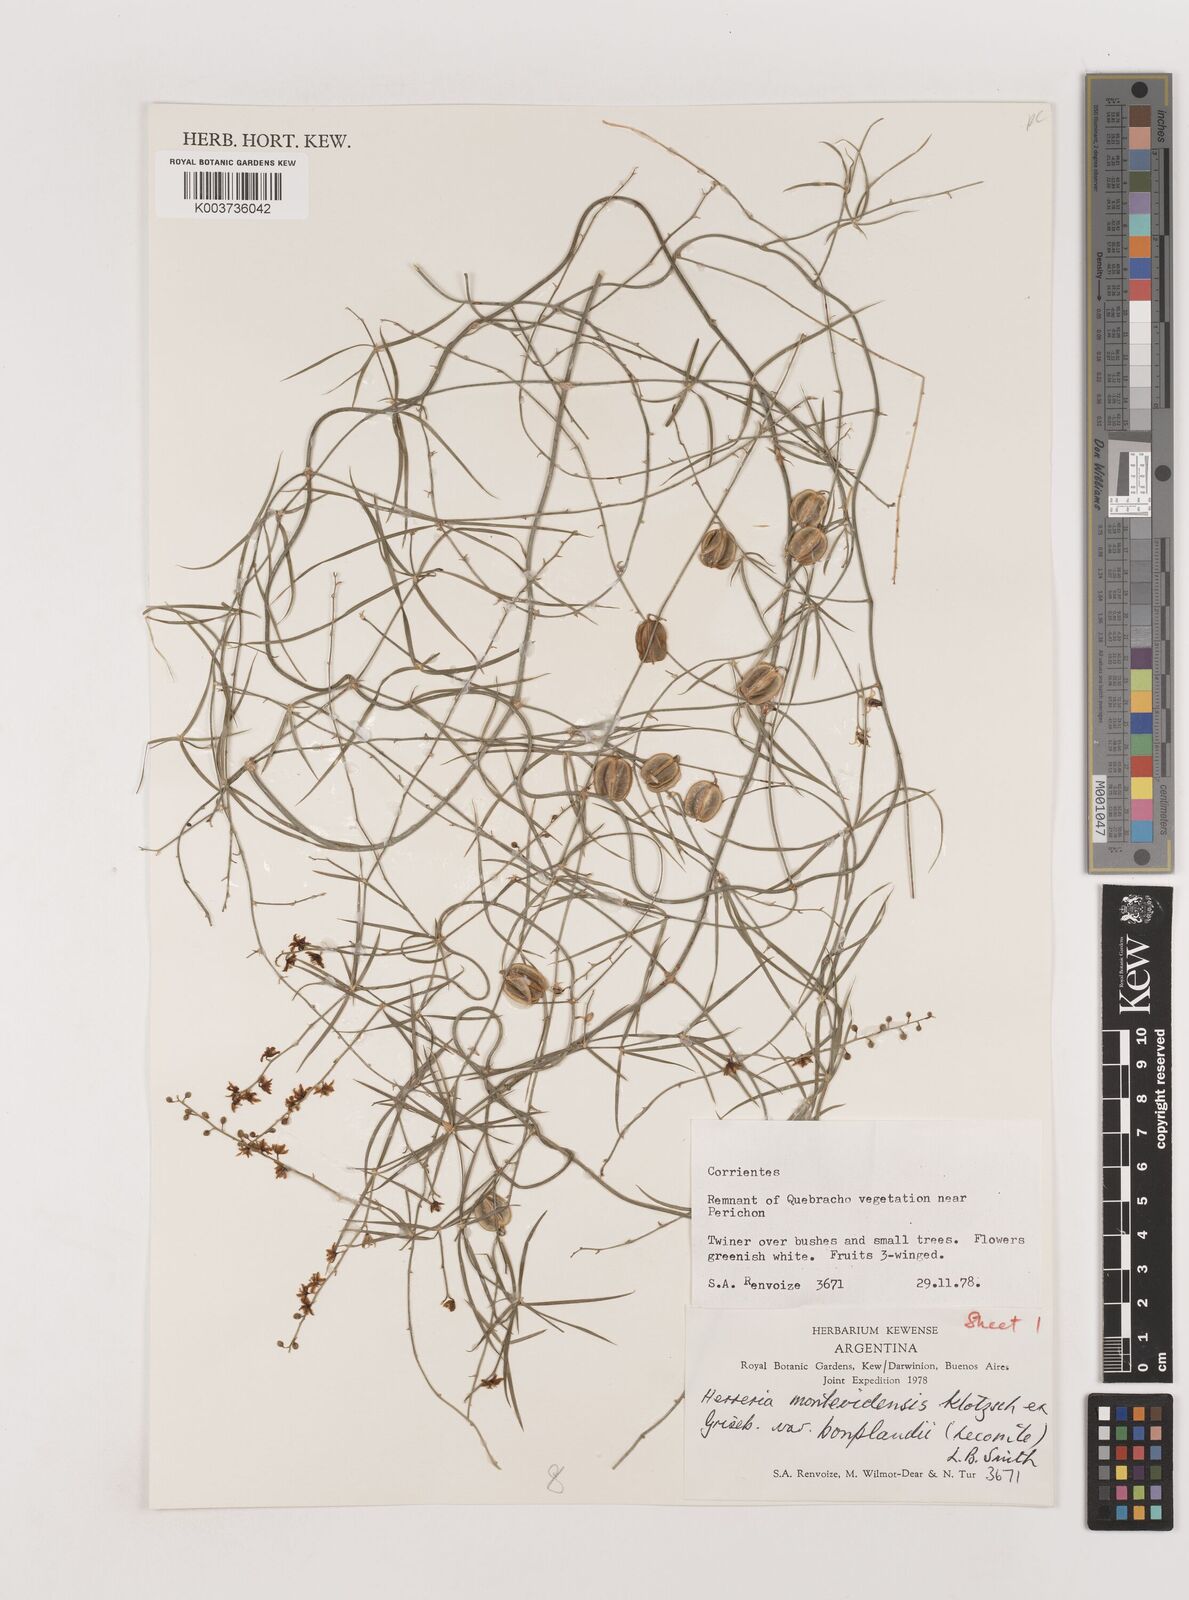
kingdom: Plantae
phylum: Tracheophyta
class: Liliopsida
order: Asparagales
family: Asparagaceae
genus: Herreria
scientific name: Herreria montevidensis
